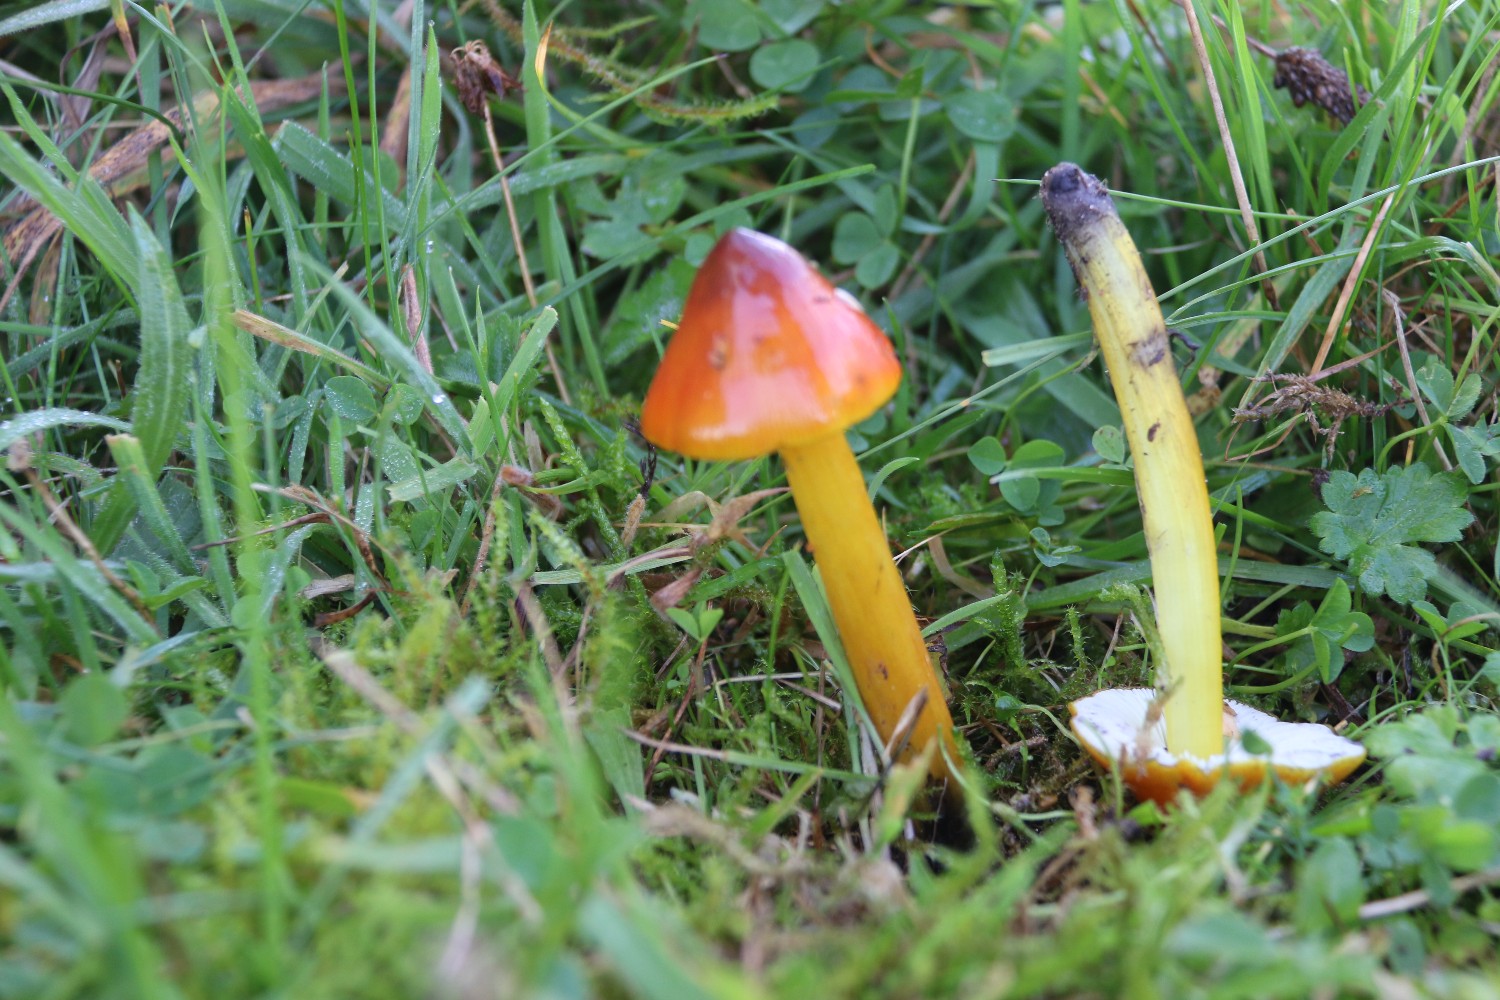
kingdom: Fungi
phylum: Basidiomycota
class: Agaricomycetes
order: Agaricales
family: Hygrophoraceae
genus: Hygrocybe
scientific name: Hygrocybe conica
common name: kegle-vokshat
